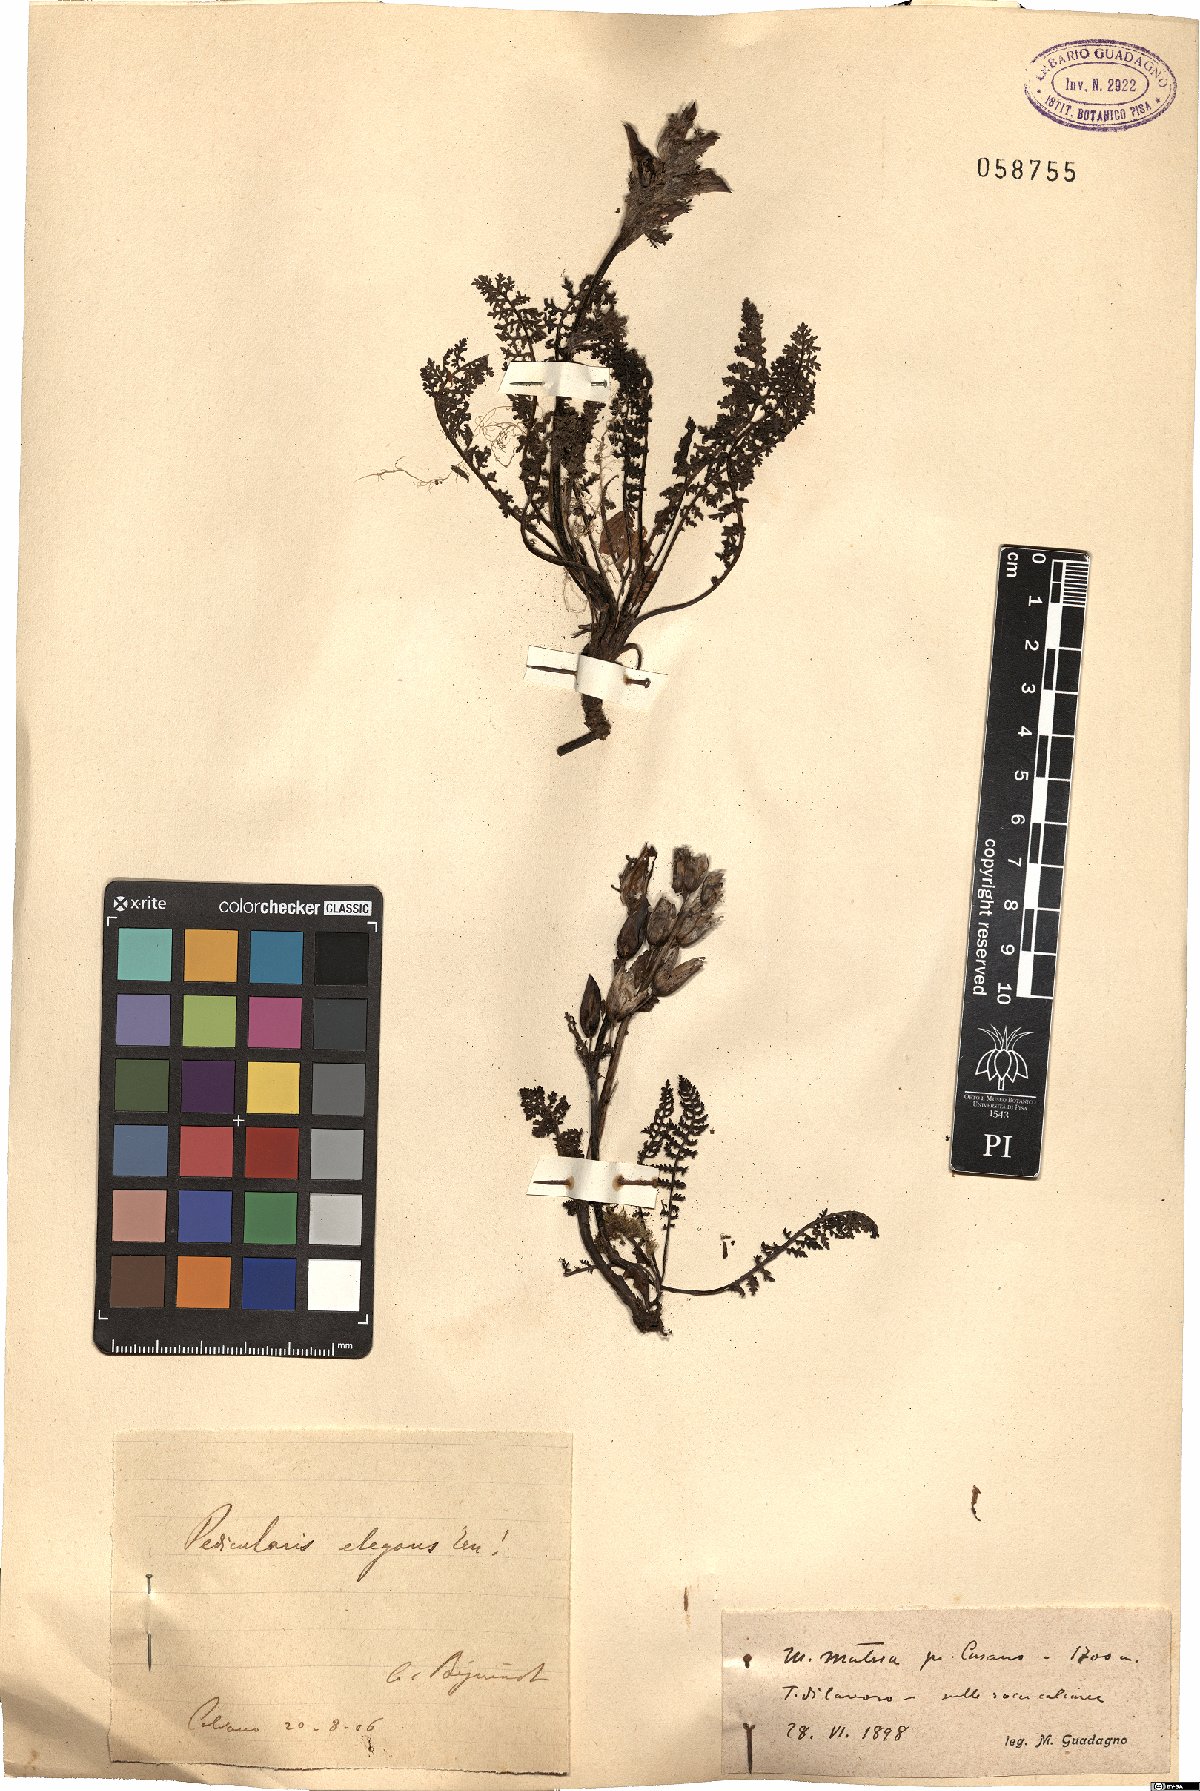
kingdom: Plantae
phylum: Tracheophyta
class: Magnoliopsida
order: Lamiales
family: Orobanchaceae
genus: Pedicularis
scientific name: Pedicularis elegans
